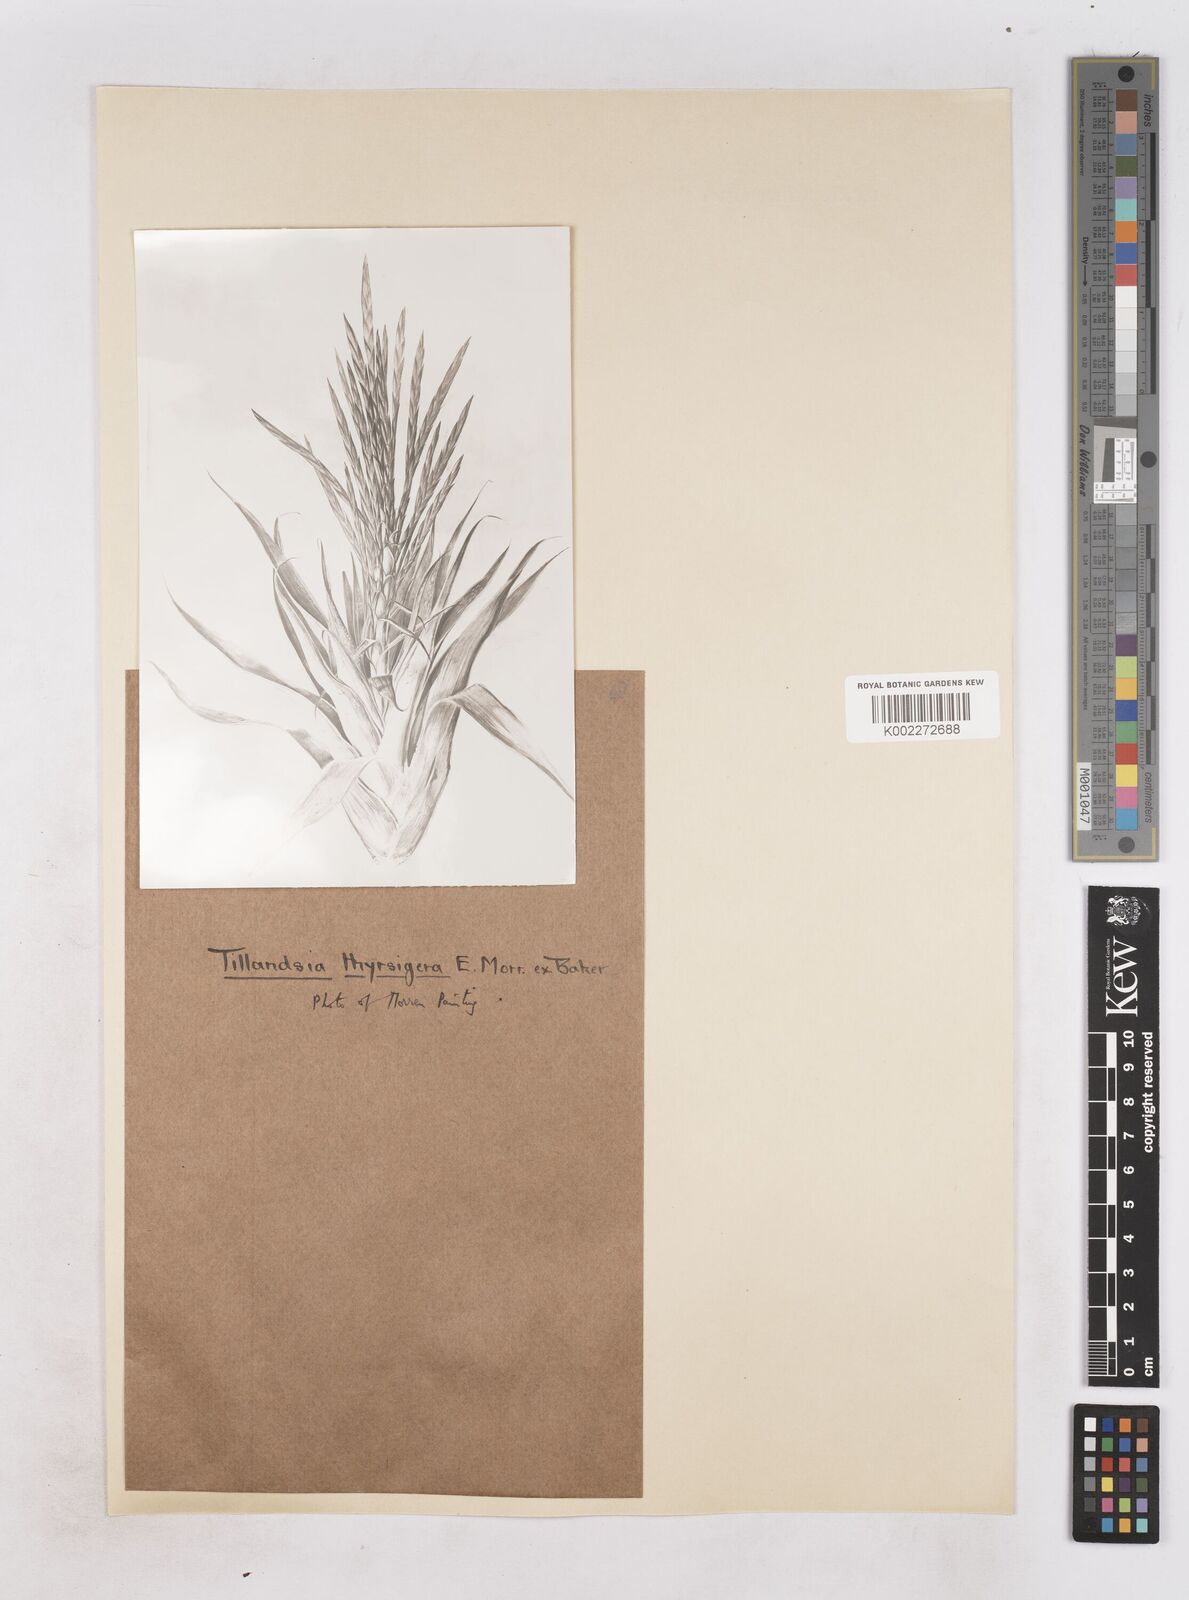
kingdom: Plantae
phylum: Tracheophyta
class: Liliopsida
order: Poales
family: Bromeliaceae
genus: Tillandsia
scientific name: Tillandsia thyrsigera
